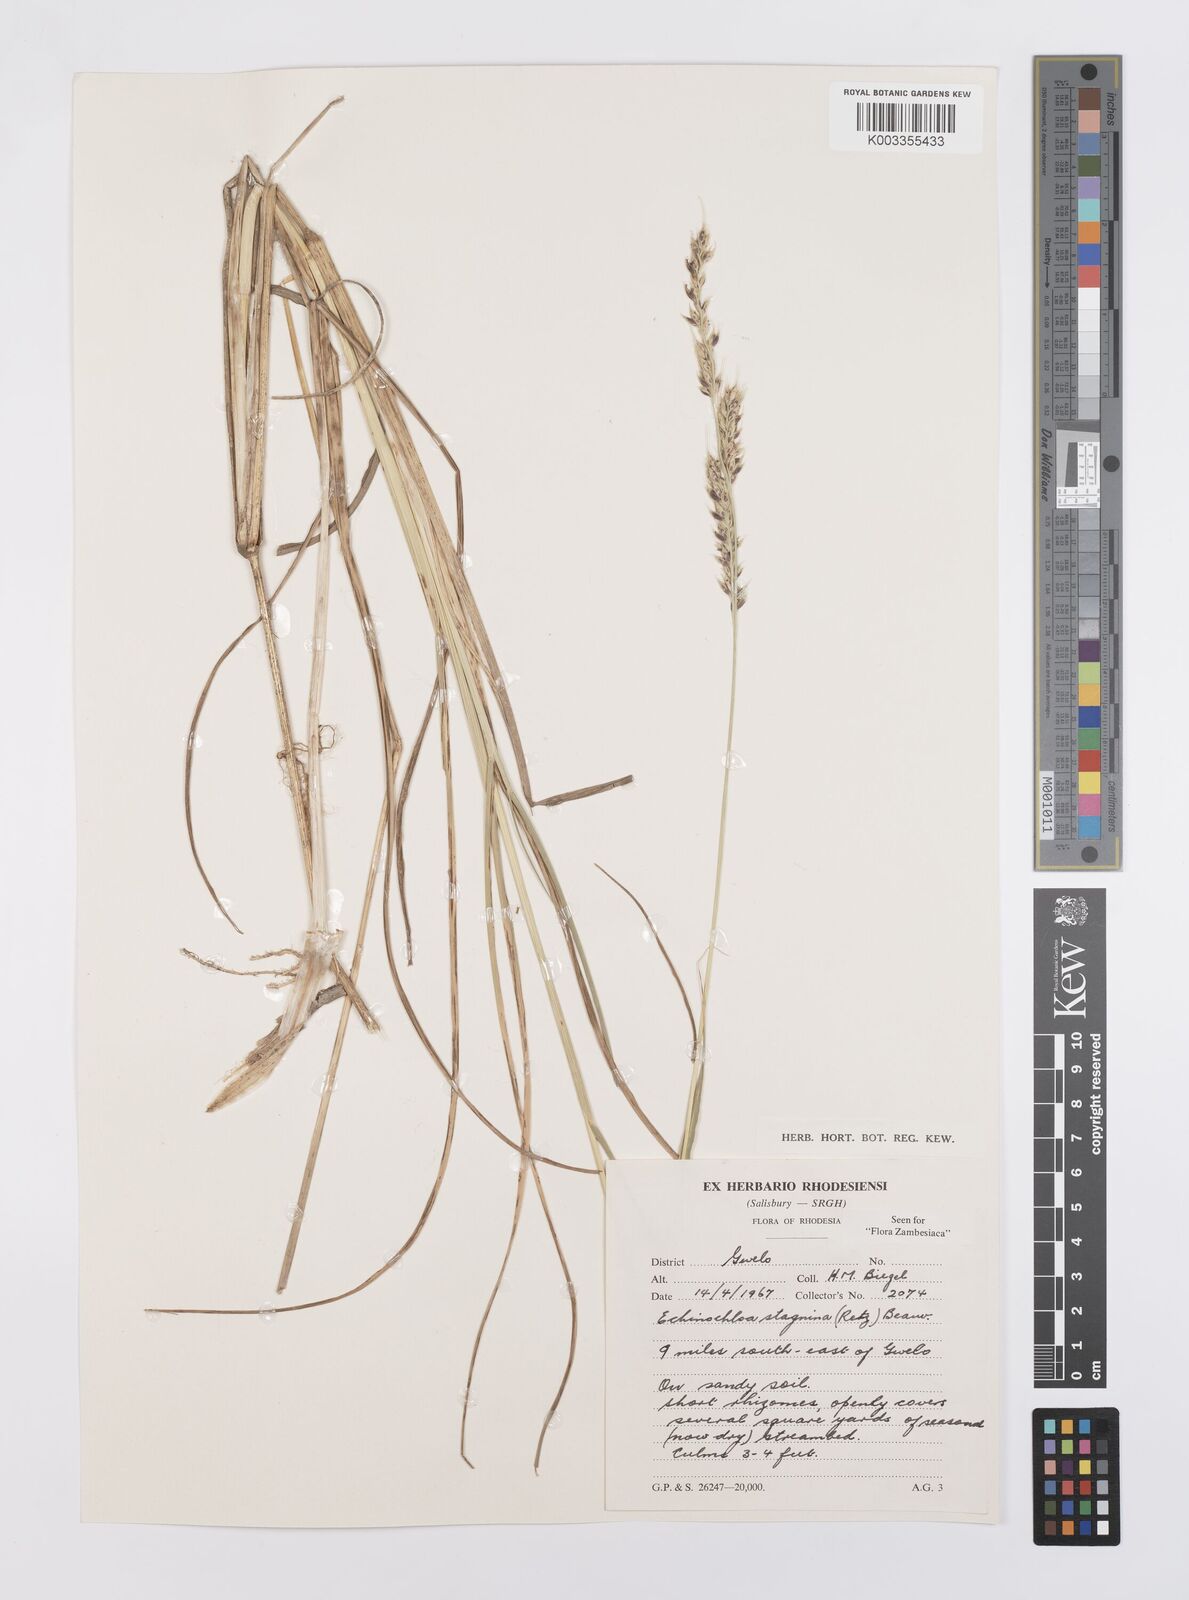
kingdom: Plantae
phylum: Tracheophyta
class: Liliopsida
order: Poales
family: Poaceae
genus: Echinochloa
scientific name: Echinochloa stagnina
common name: Burgu grass
